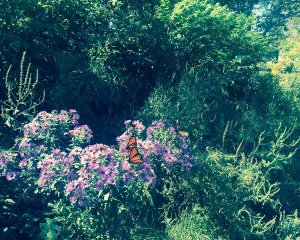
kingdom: Animalia
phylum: Arthropoda
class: Insecta
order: Lepidoptera
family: Nymphalidae
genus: Danaus
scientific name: Danaus plexippus
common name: Monarch
